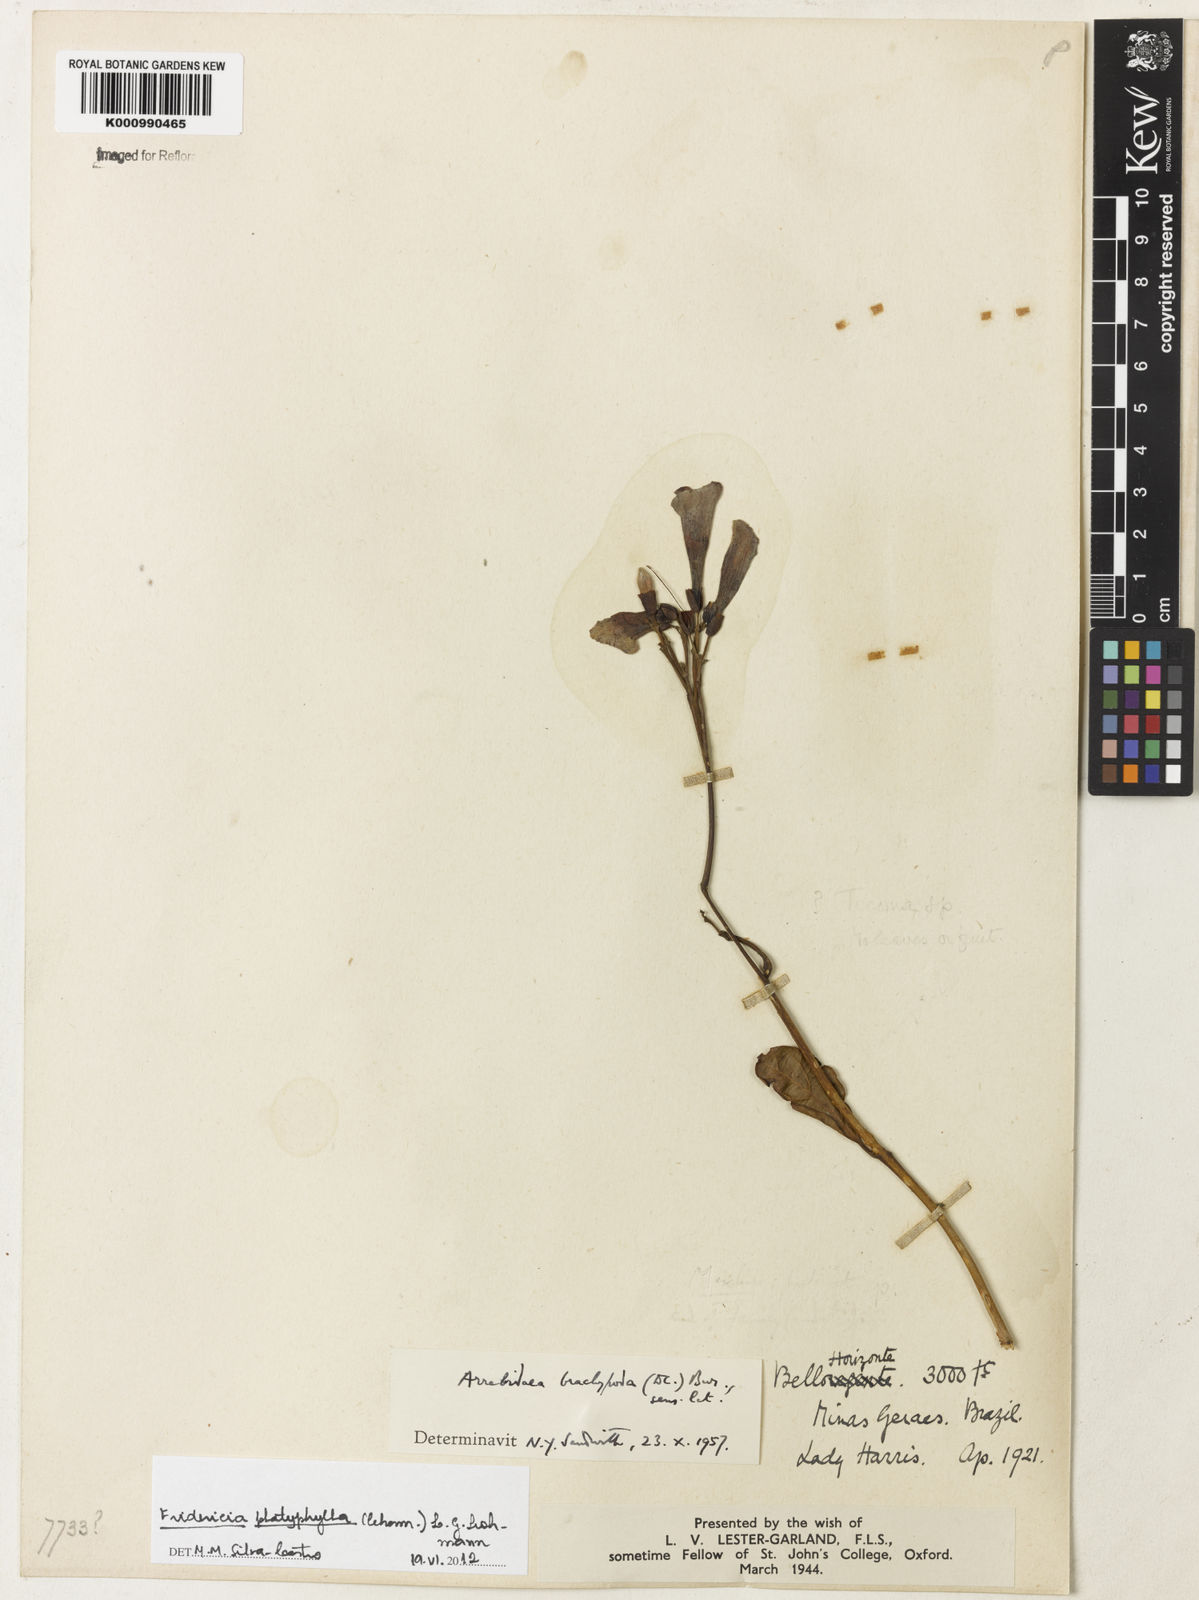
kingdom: Plantae
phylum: Tracheophyta
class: Magnoliopsida
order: Lamiales
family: Bignoniaceae
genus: Fridericia
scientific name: Fridericia platyphylla
